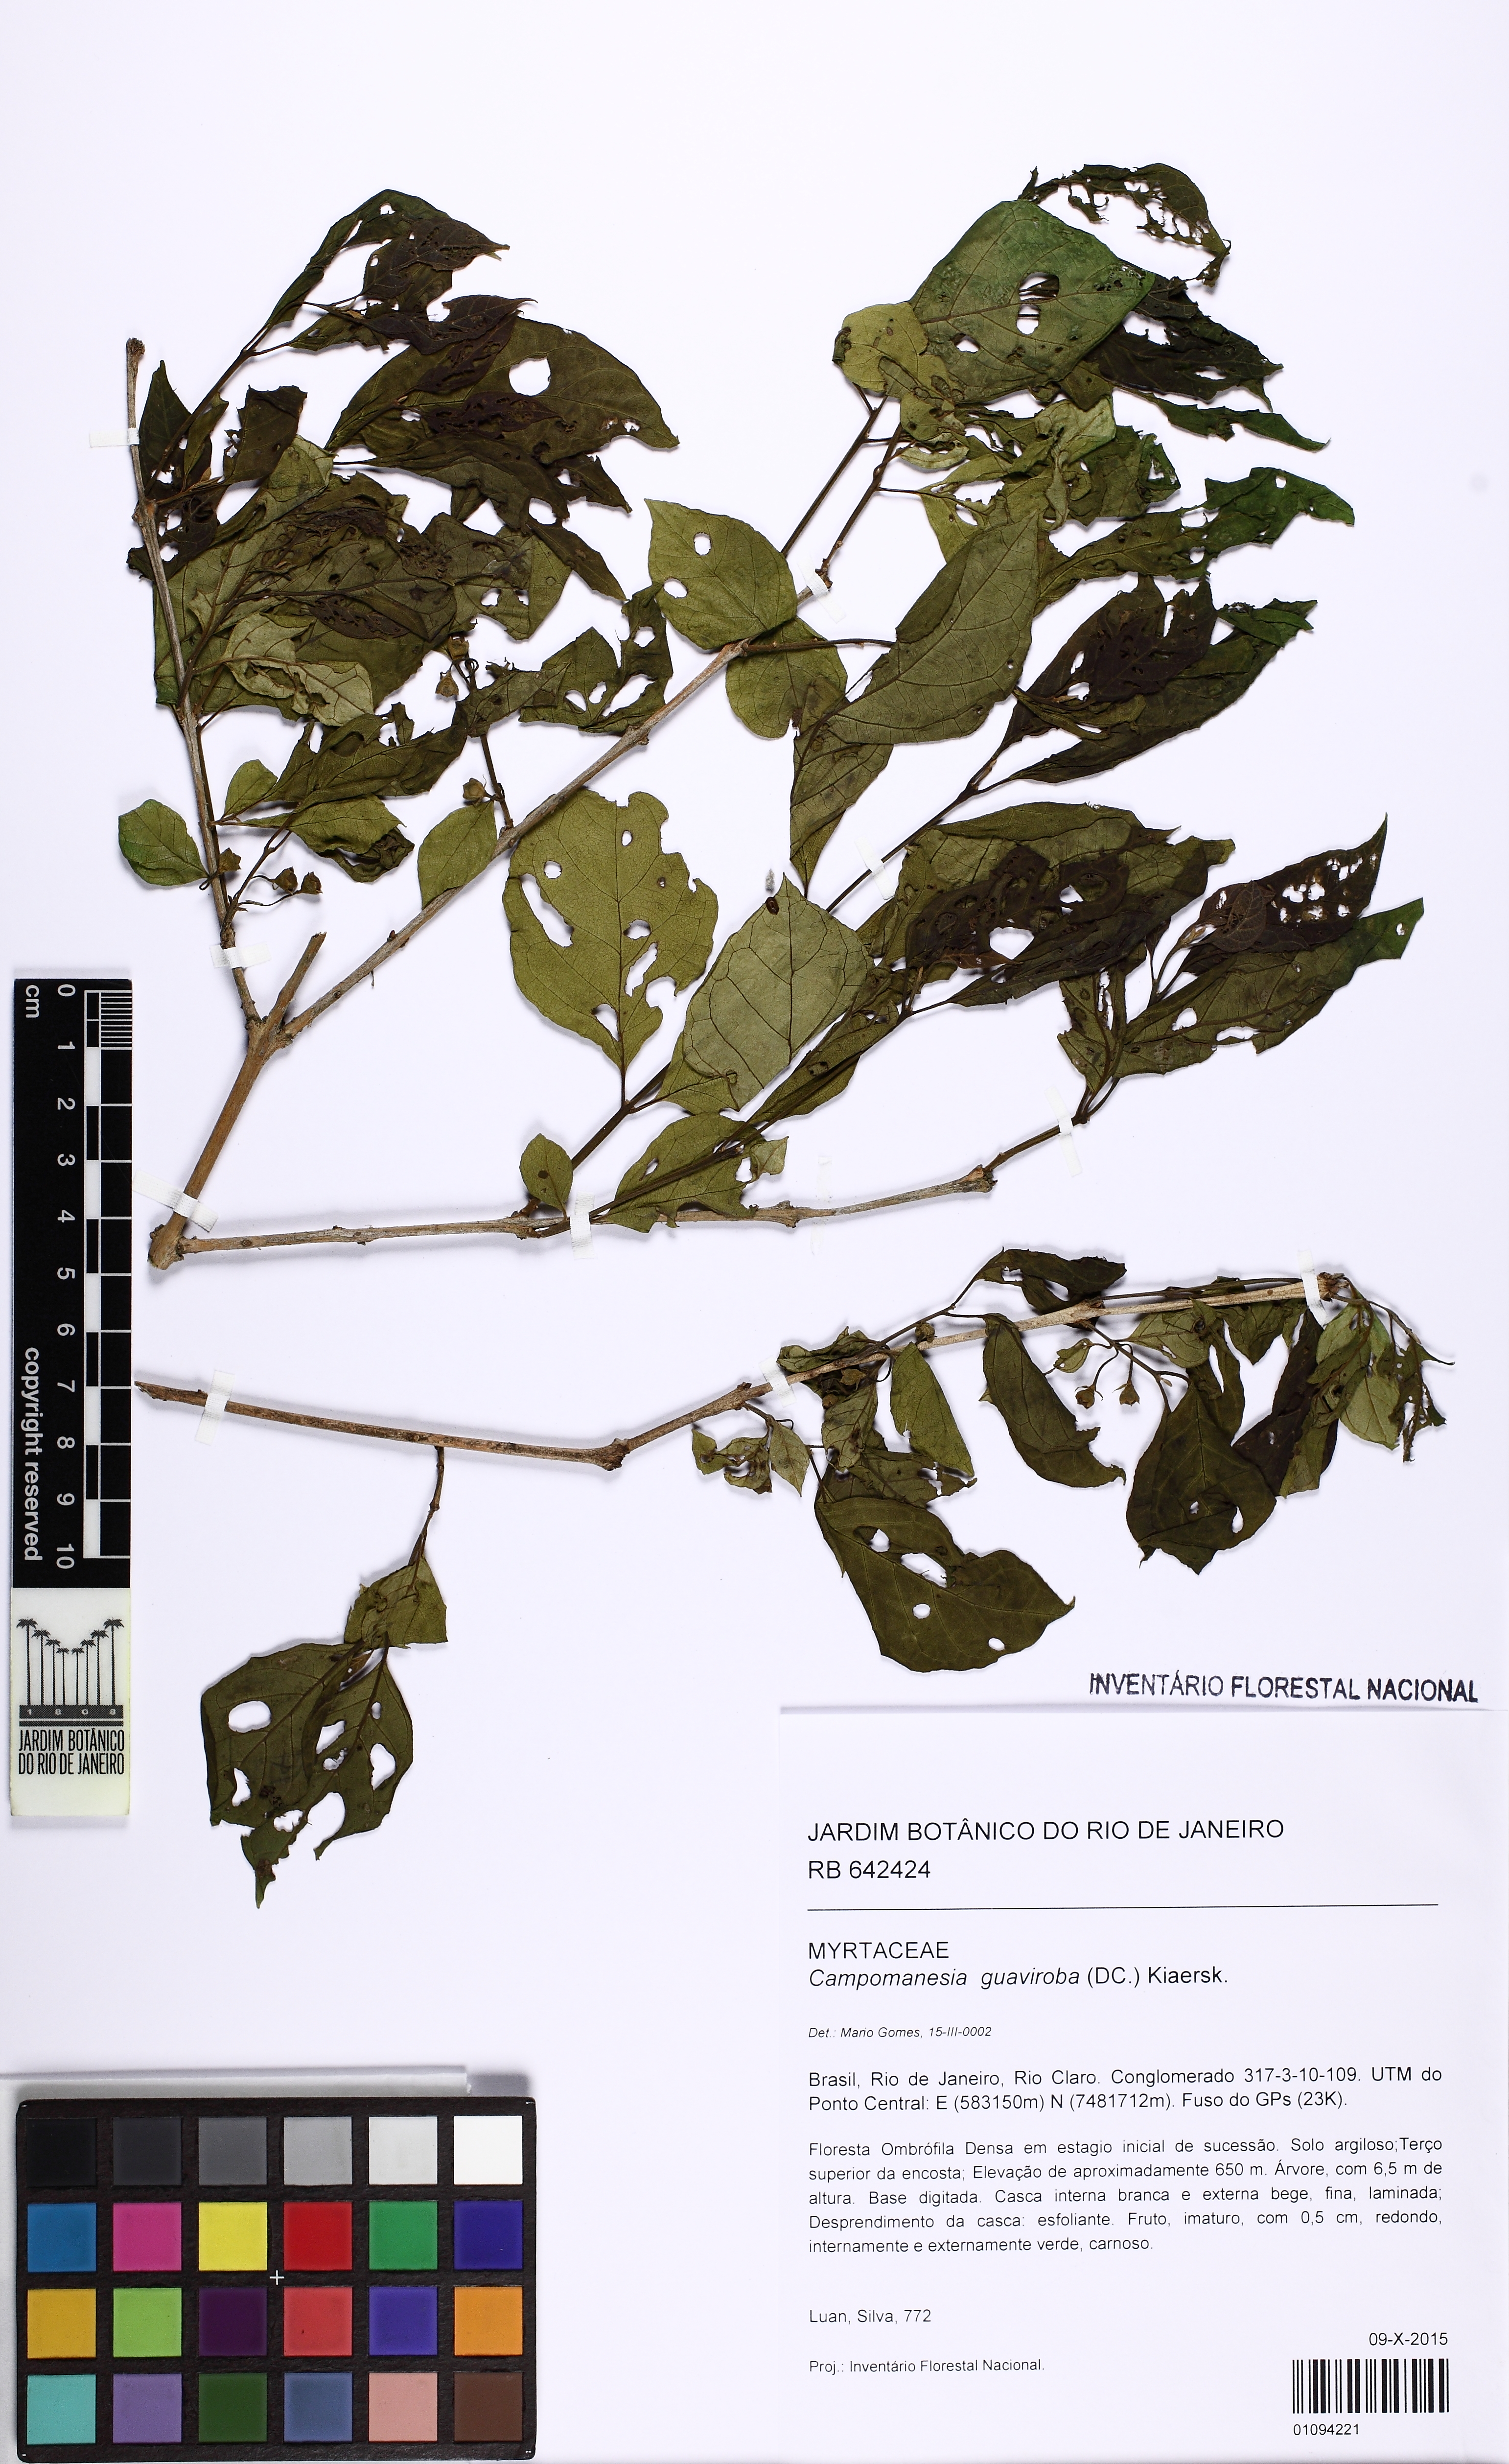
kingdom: Plantae
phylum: Tracheophyta
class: Magnoliopsida
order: Myrtales
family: Myrtaceae
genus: Campomanesia
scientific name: Campomanesia guaviroba
